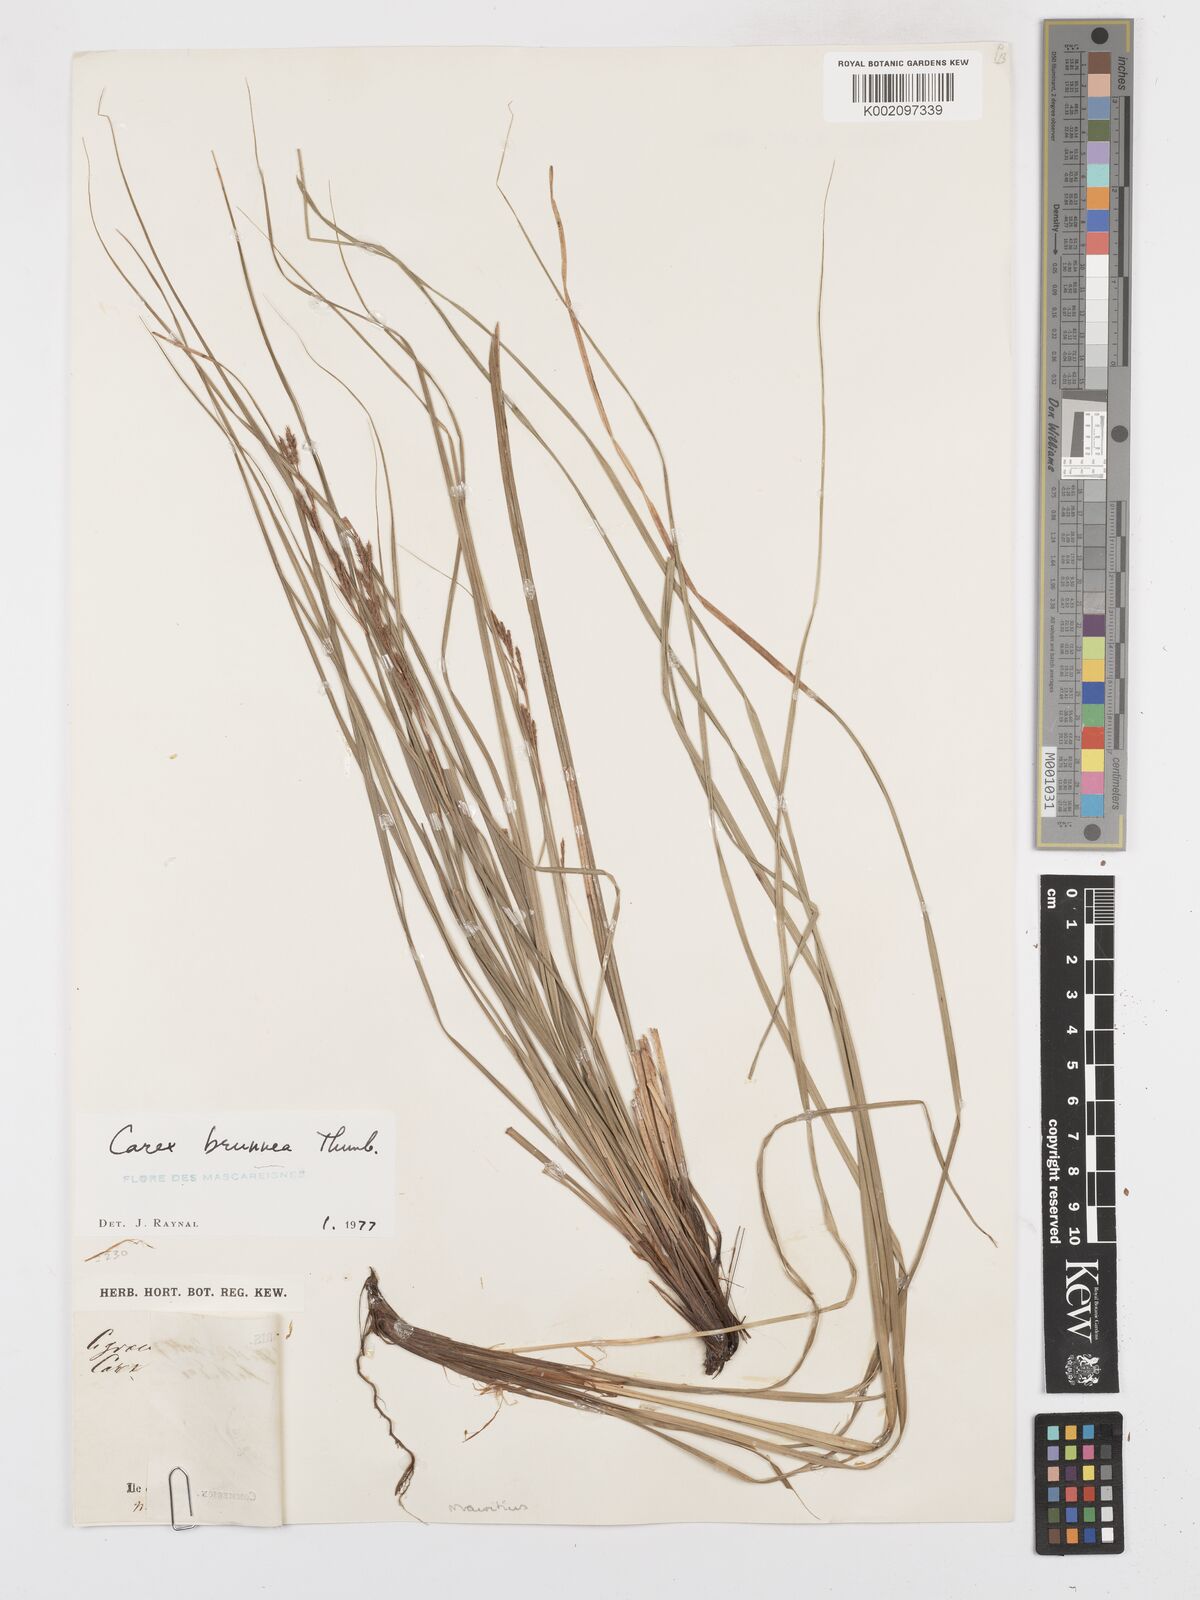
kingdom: Plantae
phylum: Tracheophyta
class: Liliopsida
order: Poales
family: Cyperaceae
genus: Carex
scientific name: Carex brunnea
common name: Greater brown sedge
